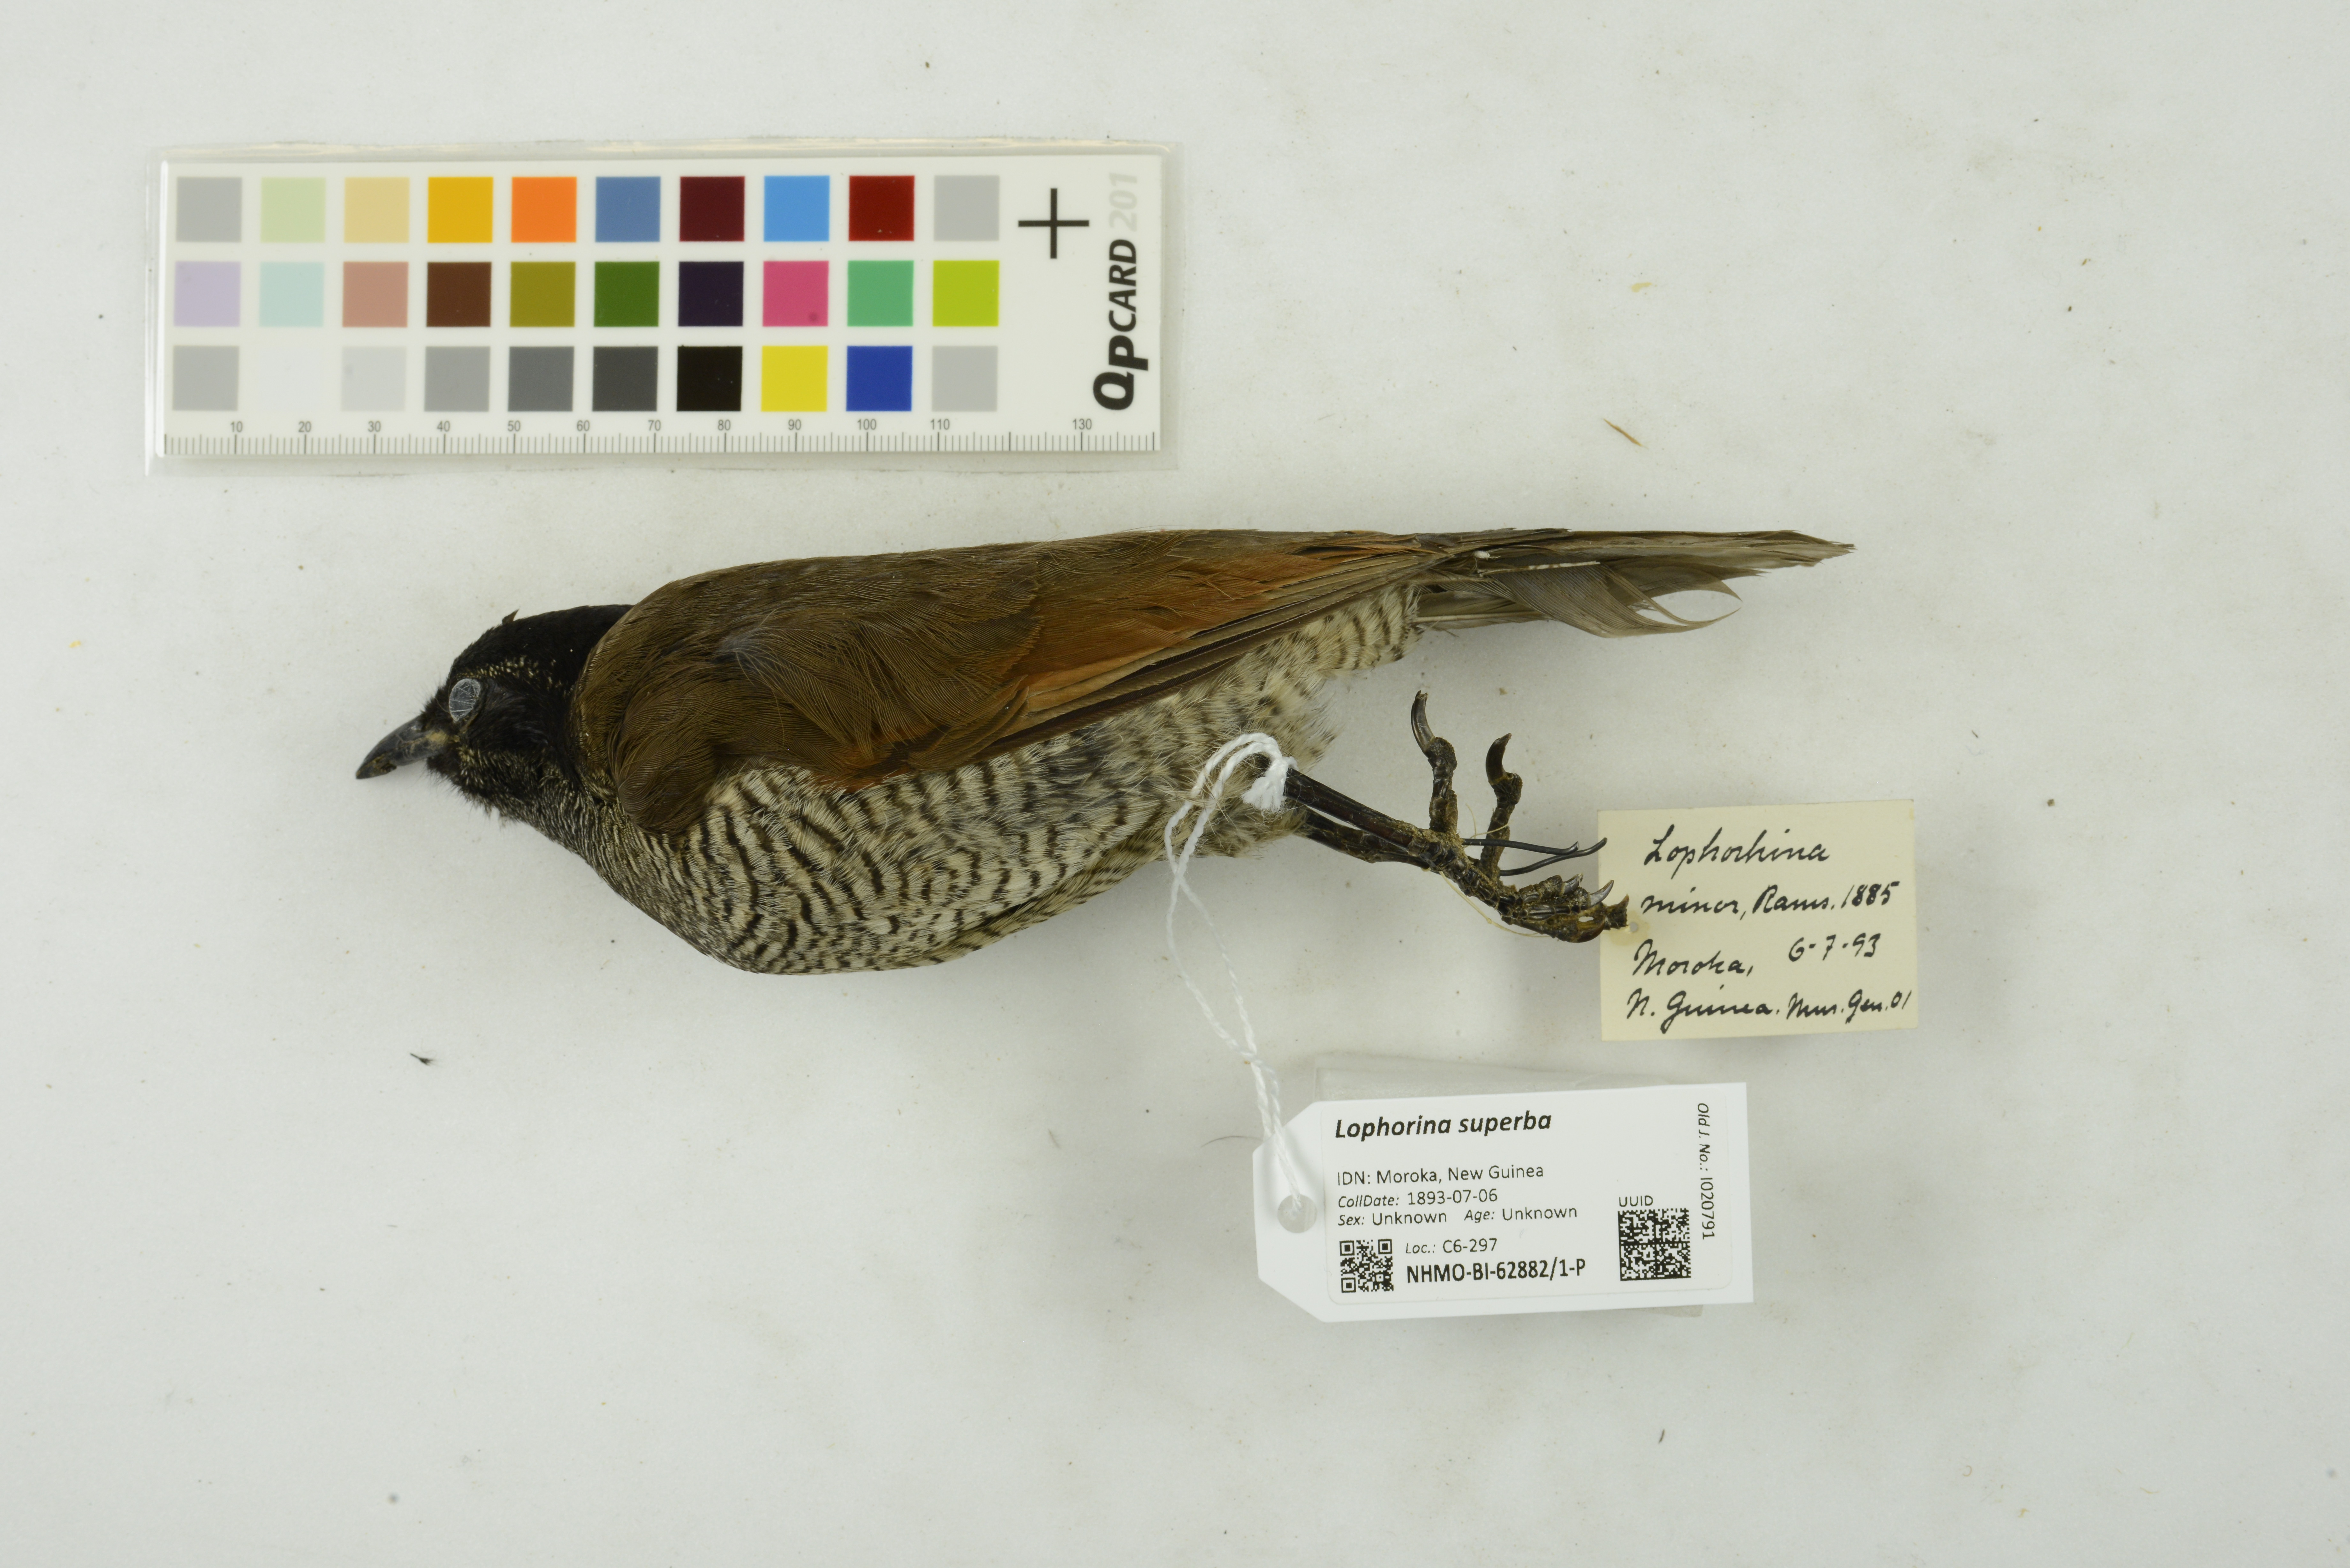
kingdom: Animalia
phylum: Chordata
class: Aves
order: Passeriformes
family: Paradisaeidae
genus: Lophorina
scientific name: Lophorina superba
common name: Superb bird-of-paradise
